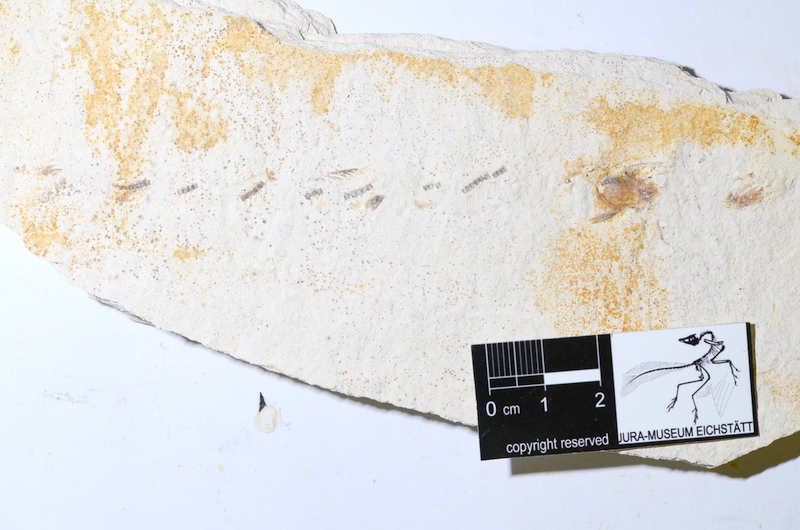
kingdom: Animalia
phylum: Chordata
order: Salmoniformes
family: Orthogonikleithridae
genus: Orthogonikleithrus
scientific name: Orthogonikleithrus hoelli
